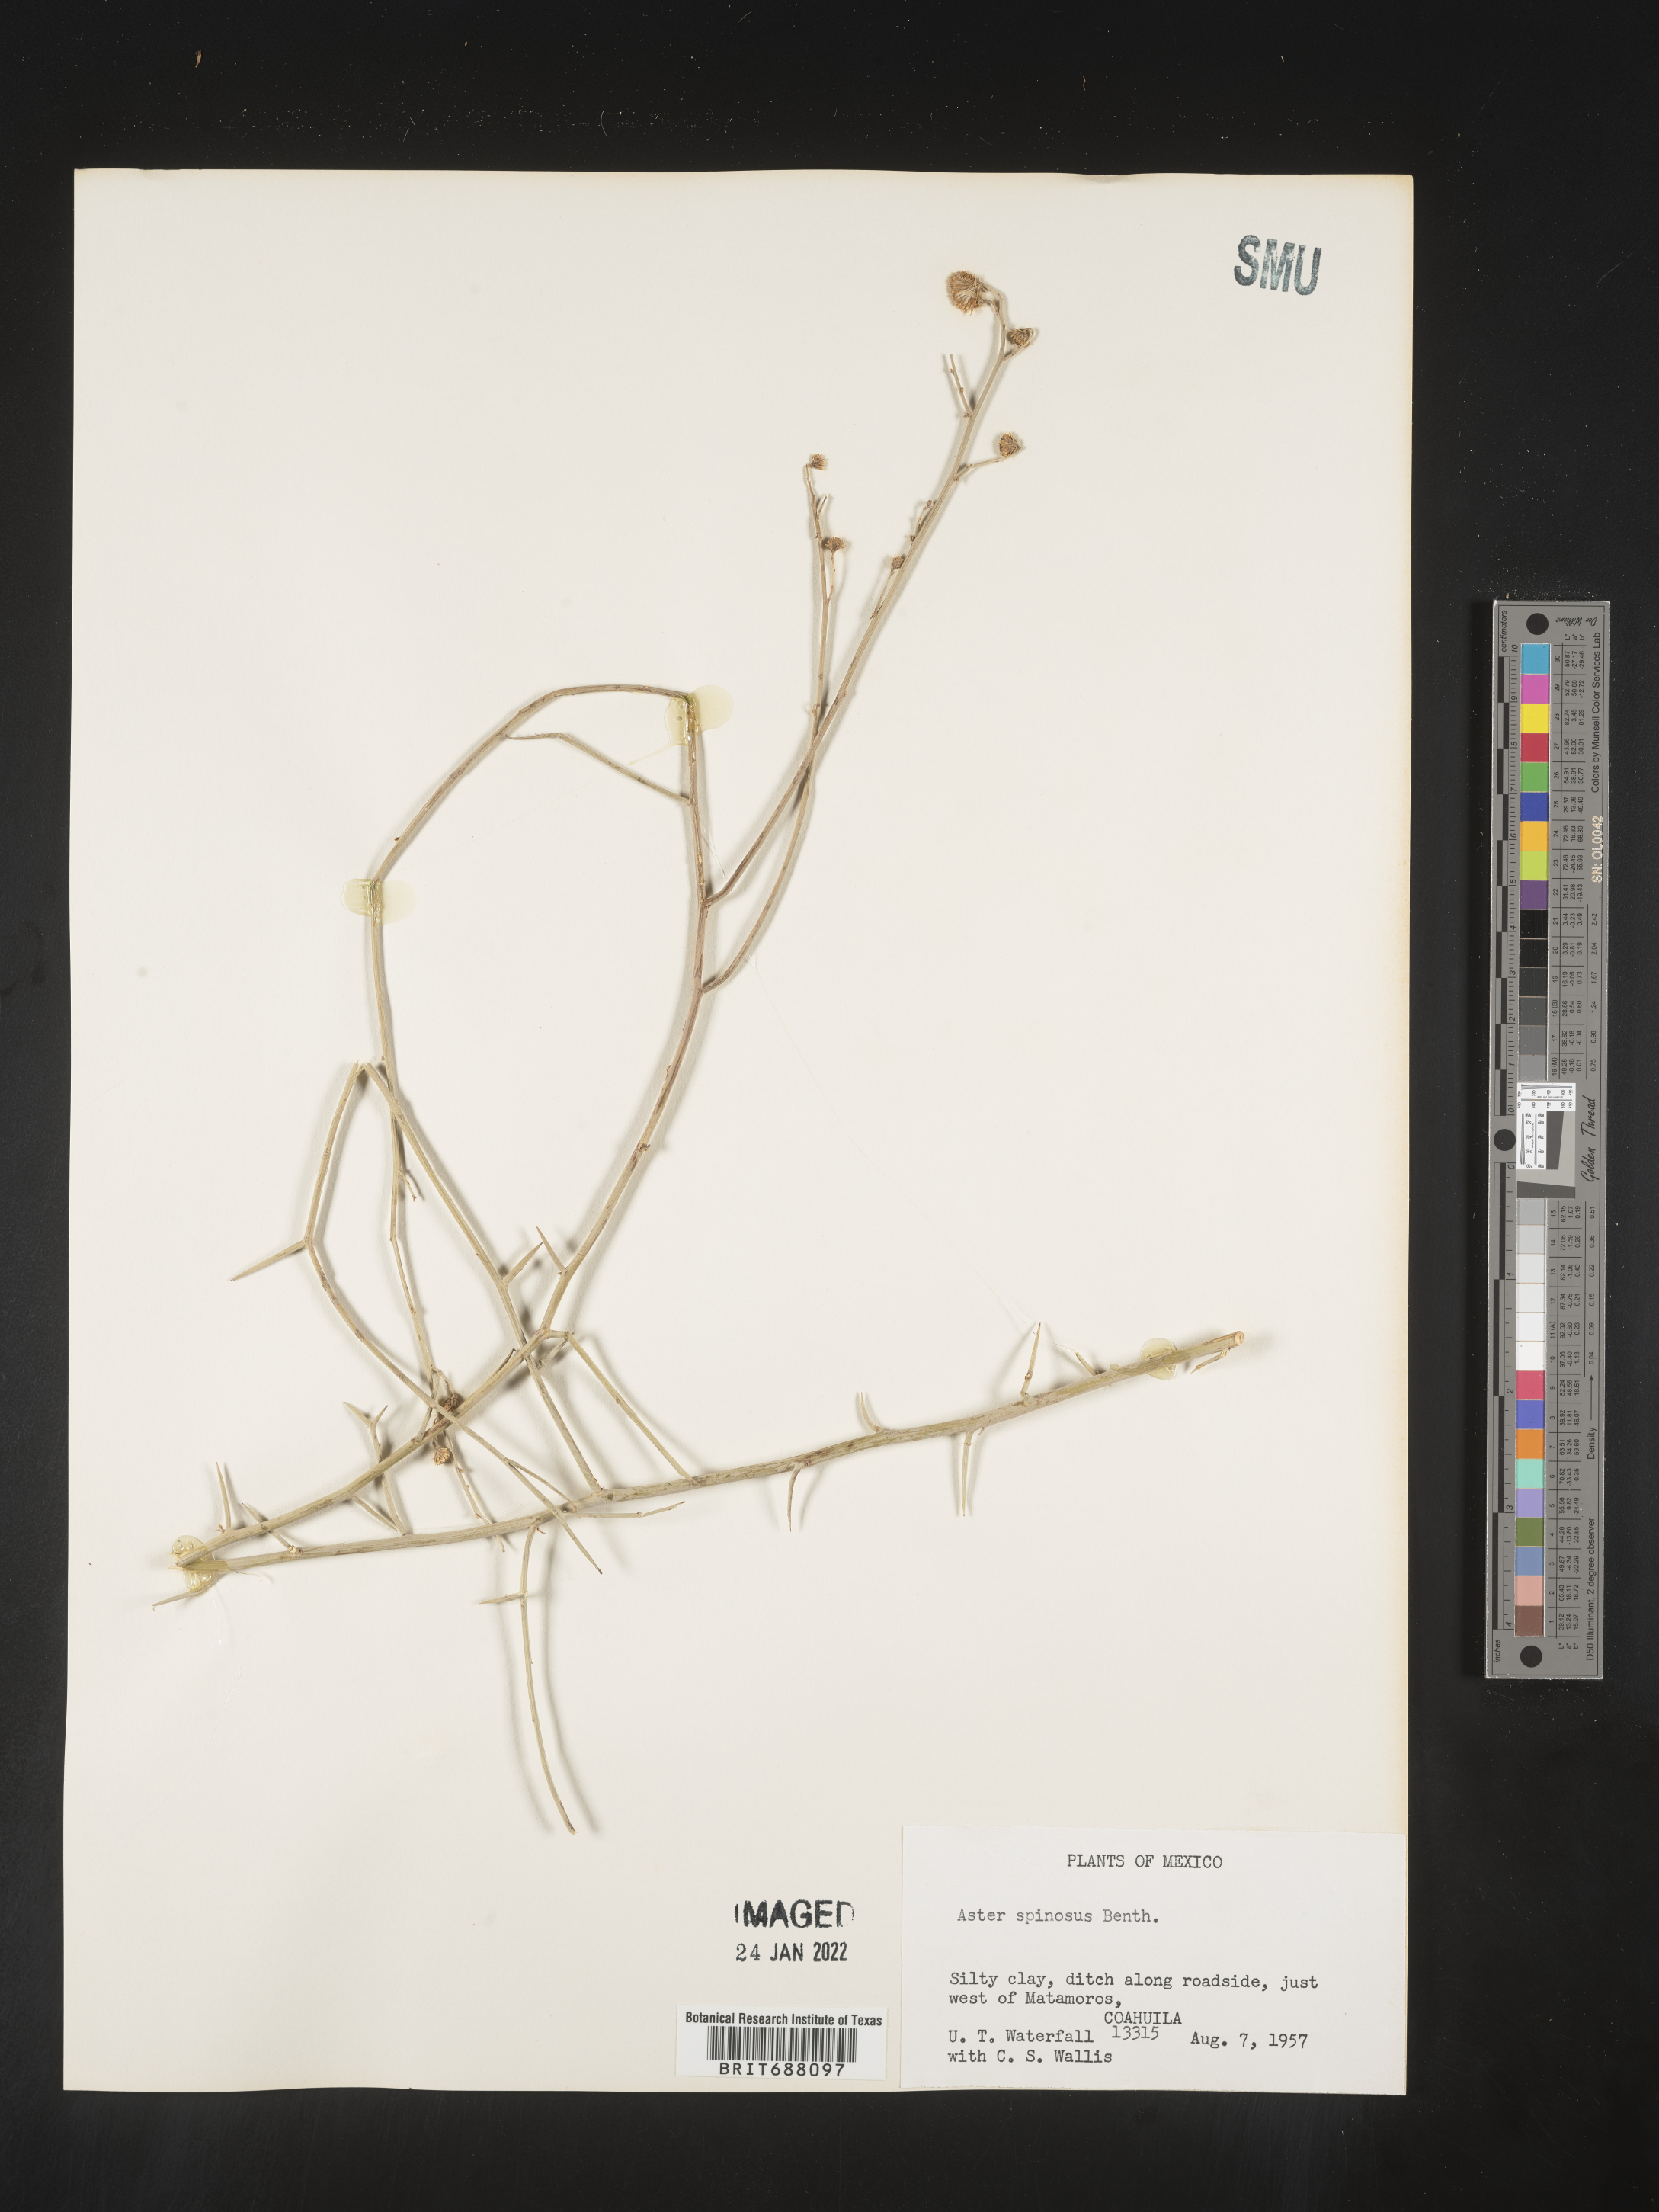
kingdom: Plantae
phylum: Tracheophyta
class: Magnoliopsida
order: Asterales
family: Asteraceae
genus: Chloracantha
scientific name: Chloracantha
